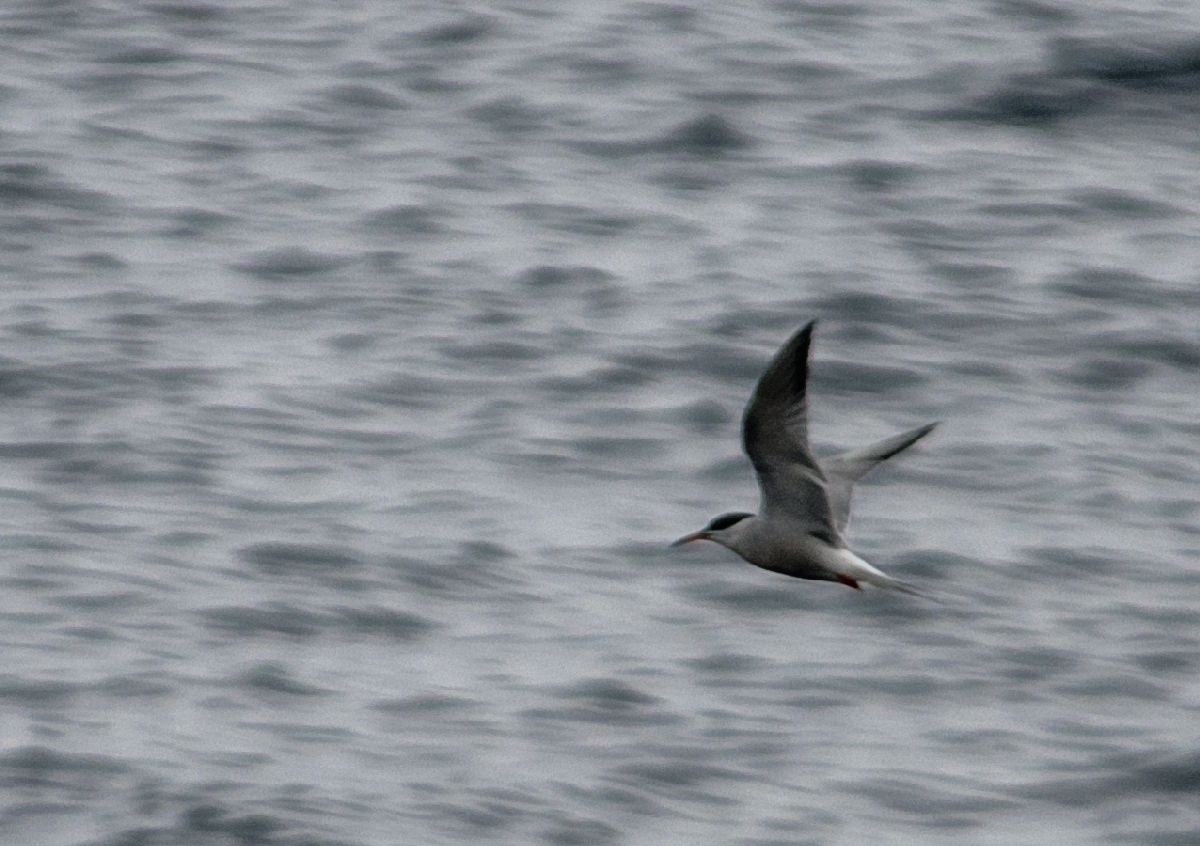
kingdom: Animalia
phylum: Chordata
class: Aves
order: Charadriiformes
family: Laridae
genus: Sterna
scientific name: Sterna hirundo
